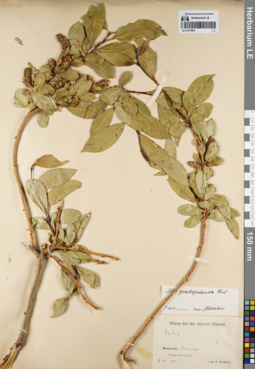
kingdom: Plantae
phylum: Tracheophyta
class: Magnoliopsida
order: Malpighiales
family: Salicaceae
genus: Salix
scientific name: Salix pseudopentandra
